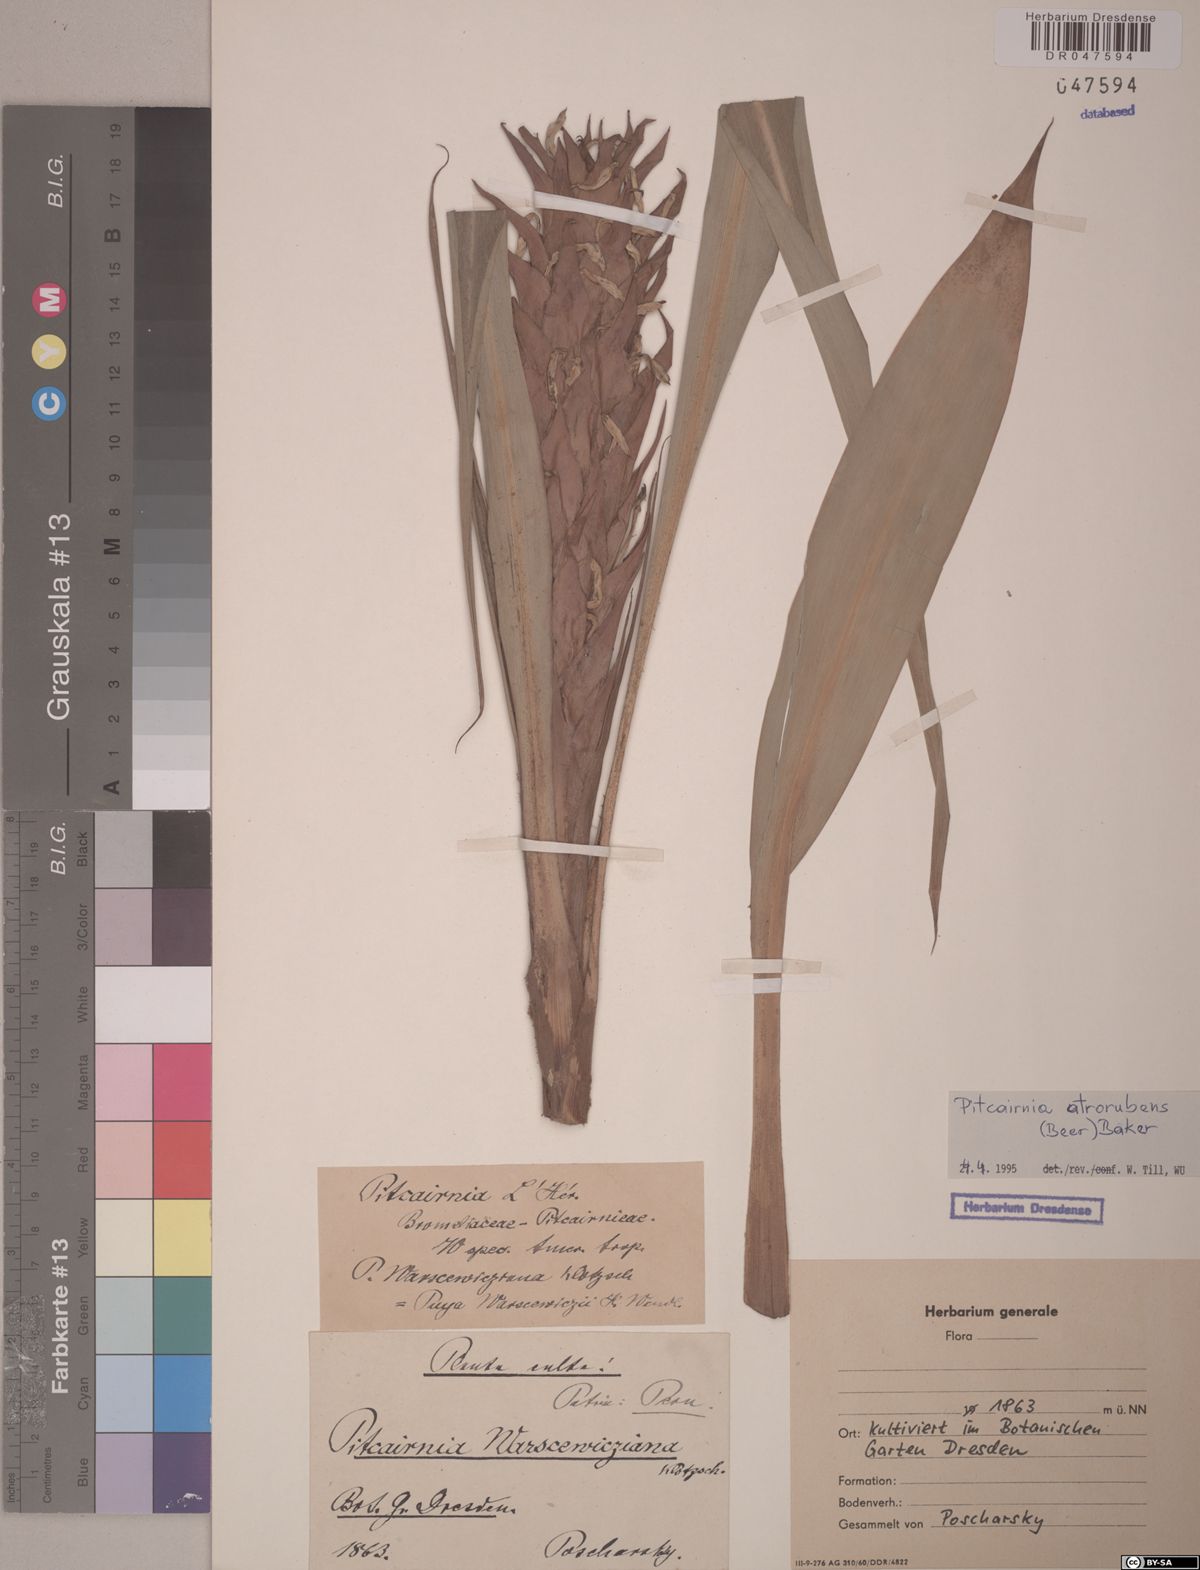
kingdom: Plantae
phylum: Tracheophyta
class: Liliopsida
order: Poales
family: Bromeliaceae
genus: Pitcairnia
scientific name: Pitcairnia atrorubens
